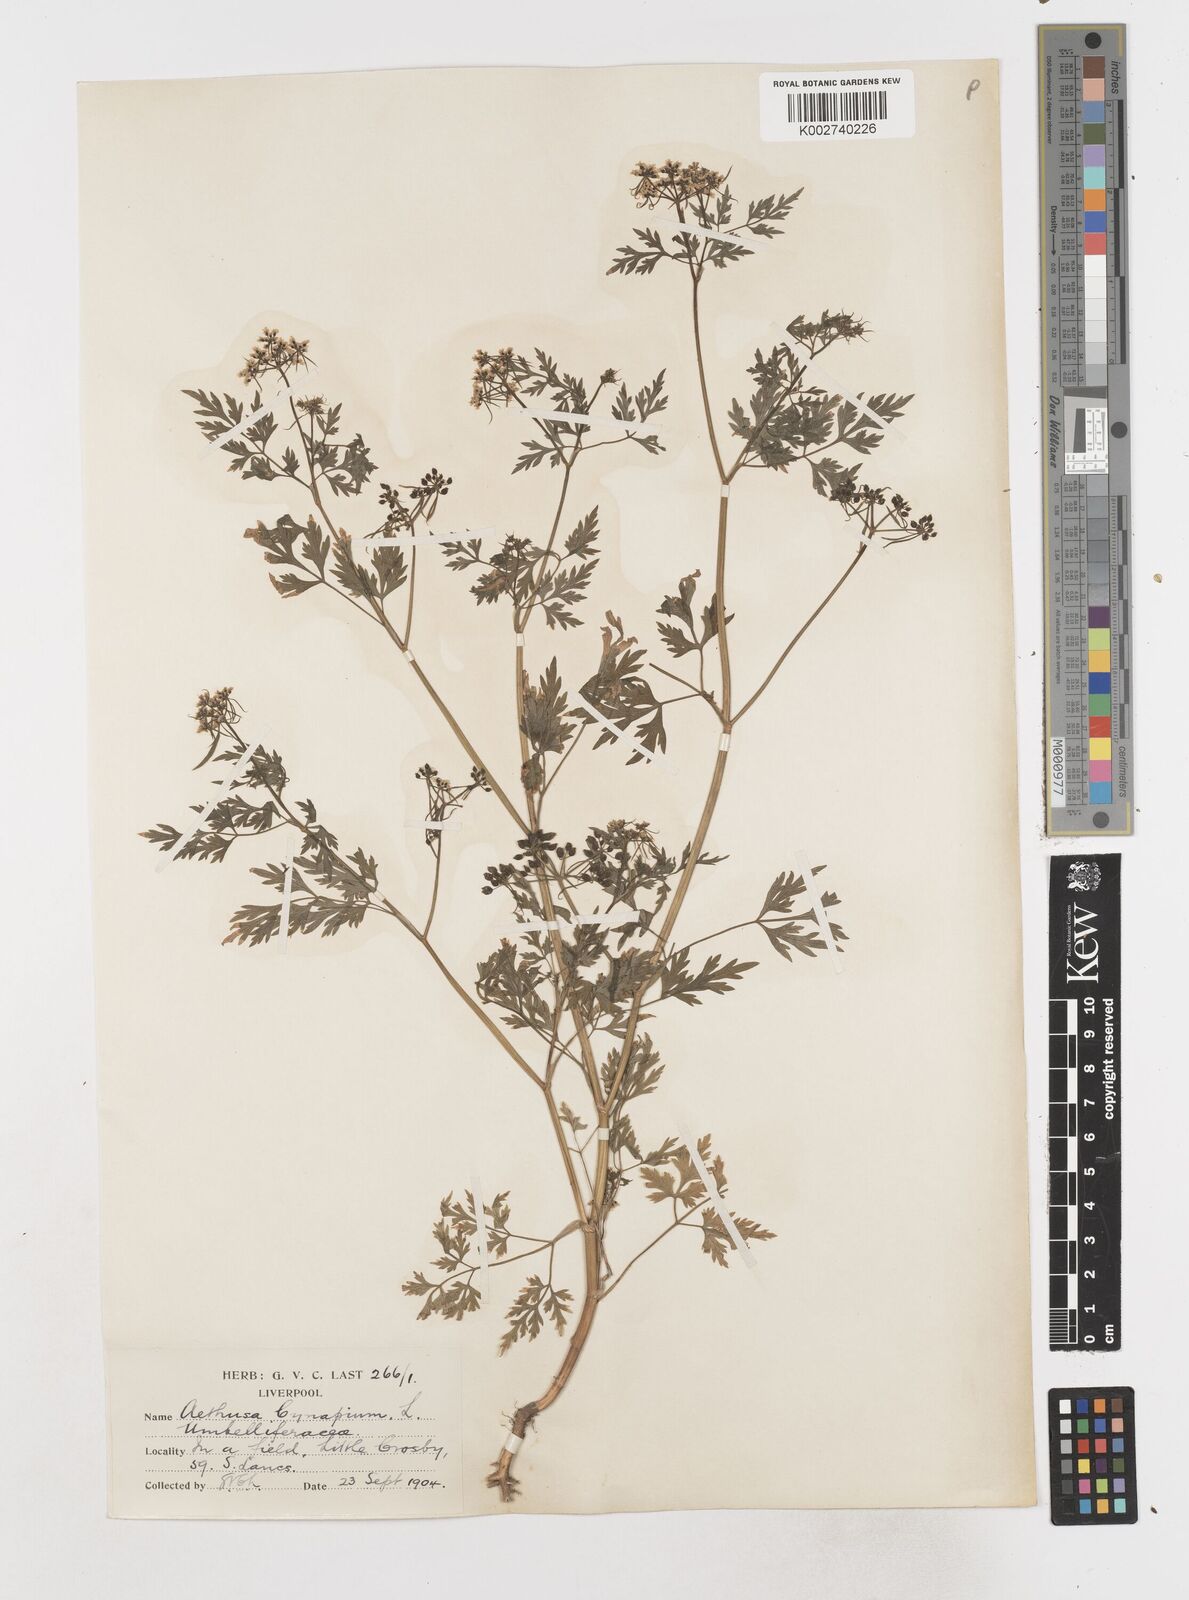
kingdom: Plantae
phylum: Tracheophyta
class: Magnoliopsida
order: Apiales
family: Apiaceae
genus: Aethusa
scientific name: Aethusa cynapium
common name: Fool's parsley
